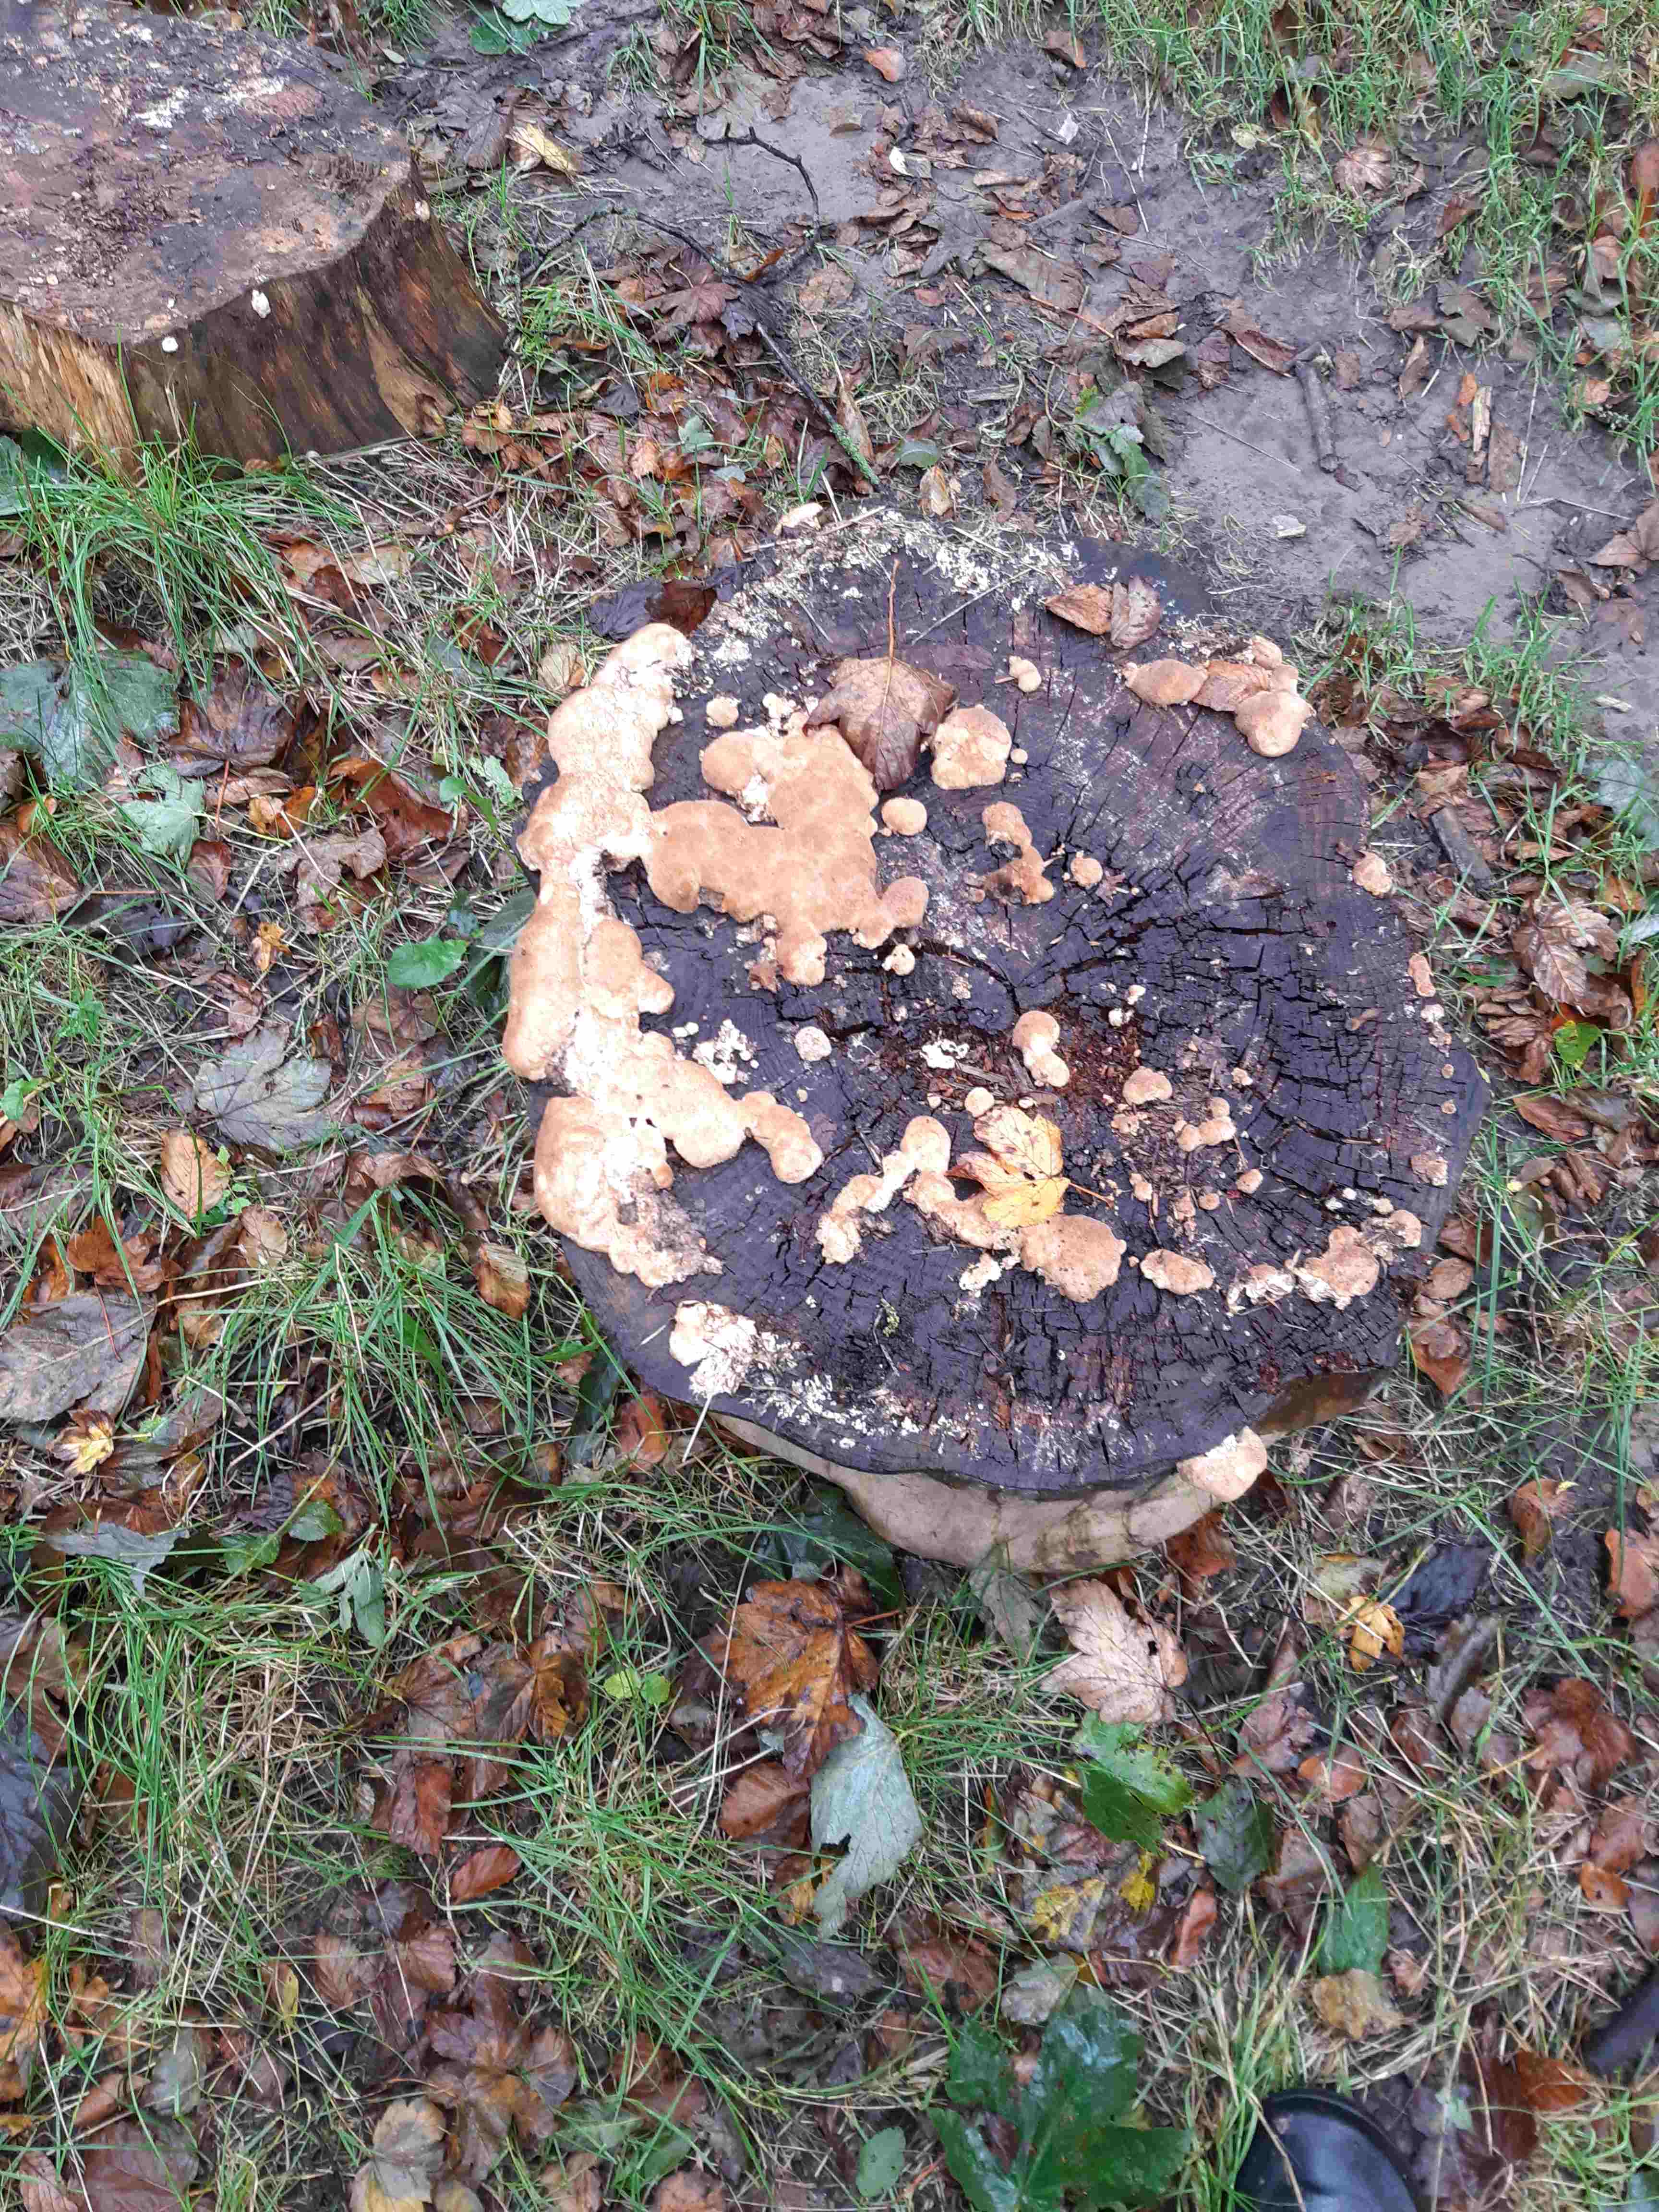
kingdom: Fungi
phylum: Basidiomycota
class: Agaricomycetes
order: Polyporales
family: Dacryobolaceae
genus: Postia
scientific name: Postia ptychogaster
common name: støvende kødporesvamp
